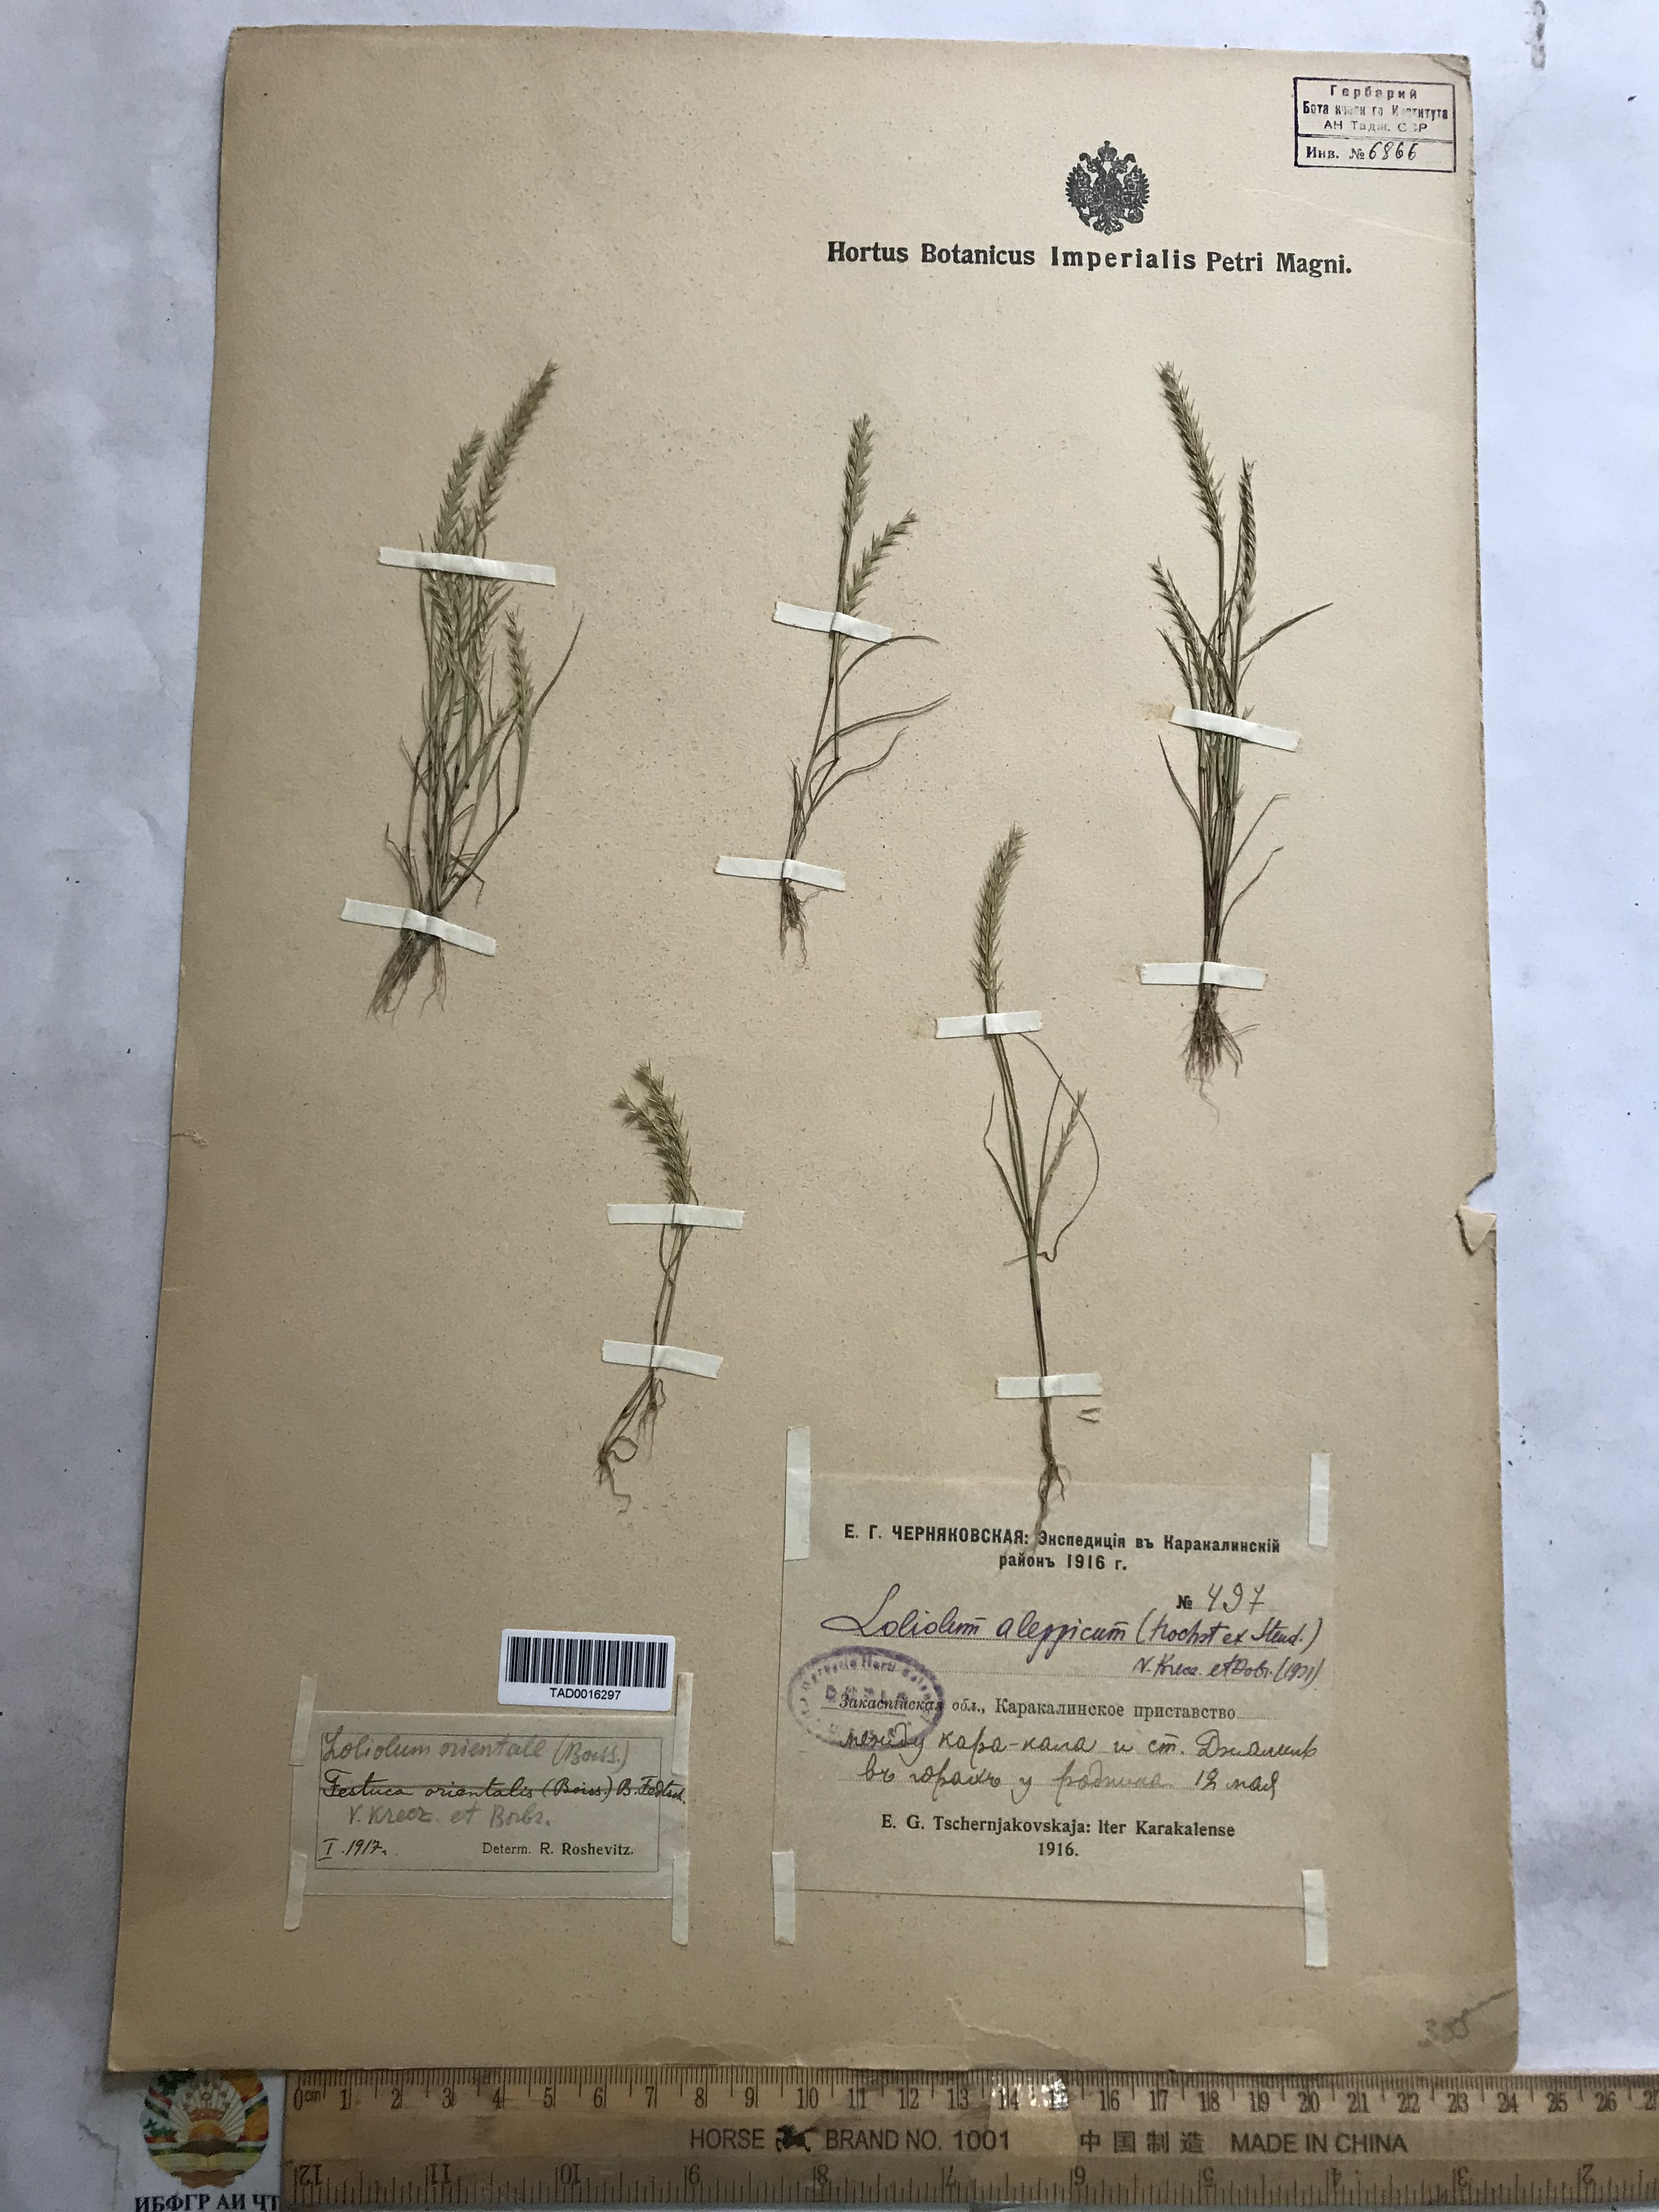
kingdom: Plantae
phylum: Tracheophyta
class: Liliopsida
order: Poales
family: Poaceae
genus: Festuca
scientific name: Festuca orientalis
